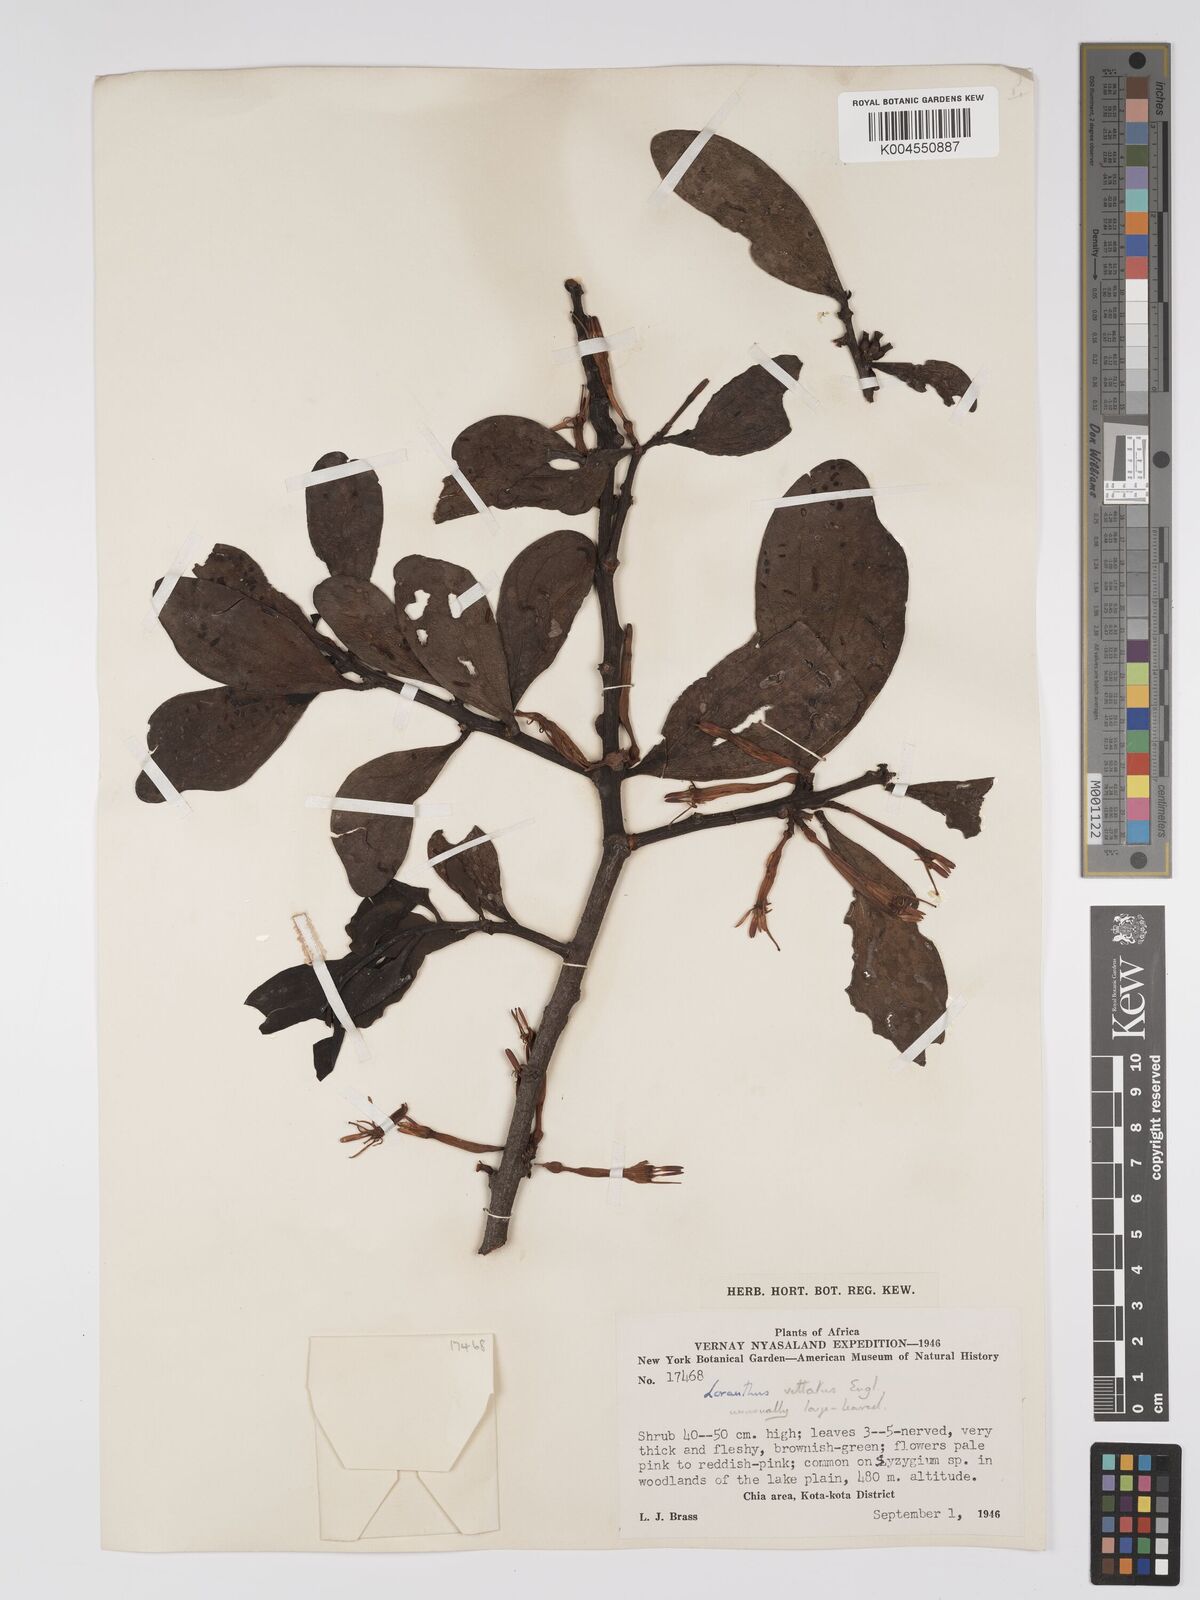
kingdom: Plantae
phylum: Tracheophyta
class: Magnoliopsida
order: Santalales
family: Loranthaceae
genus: Agelanthus
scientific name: Agelanthus zizyphifolius
